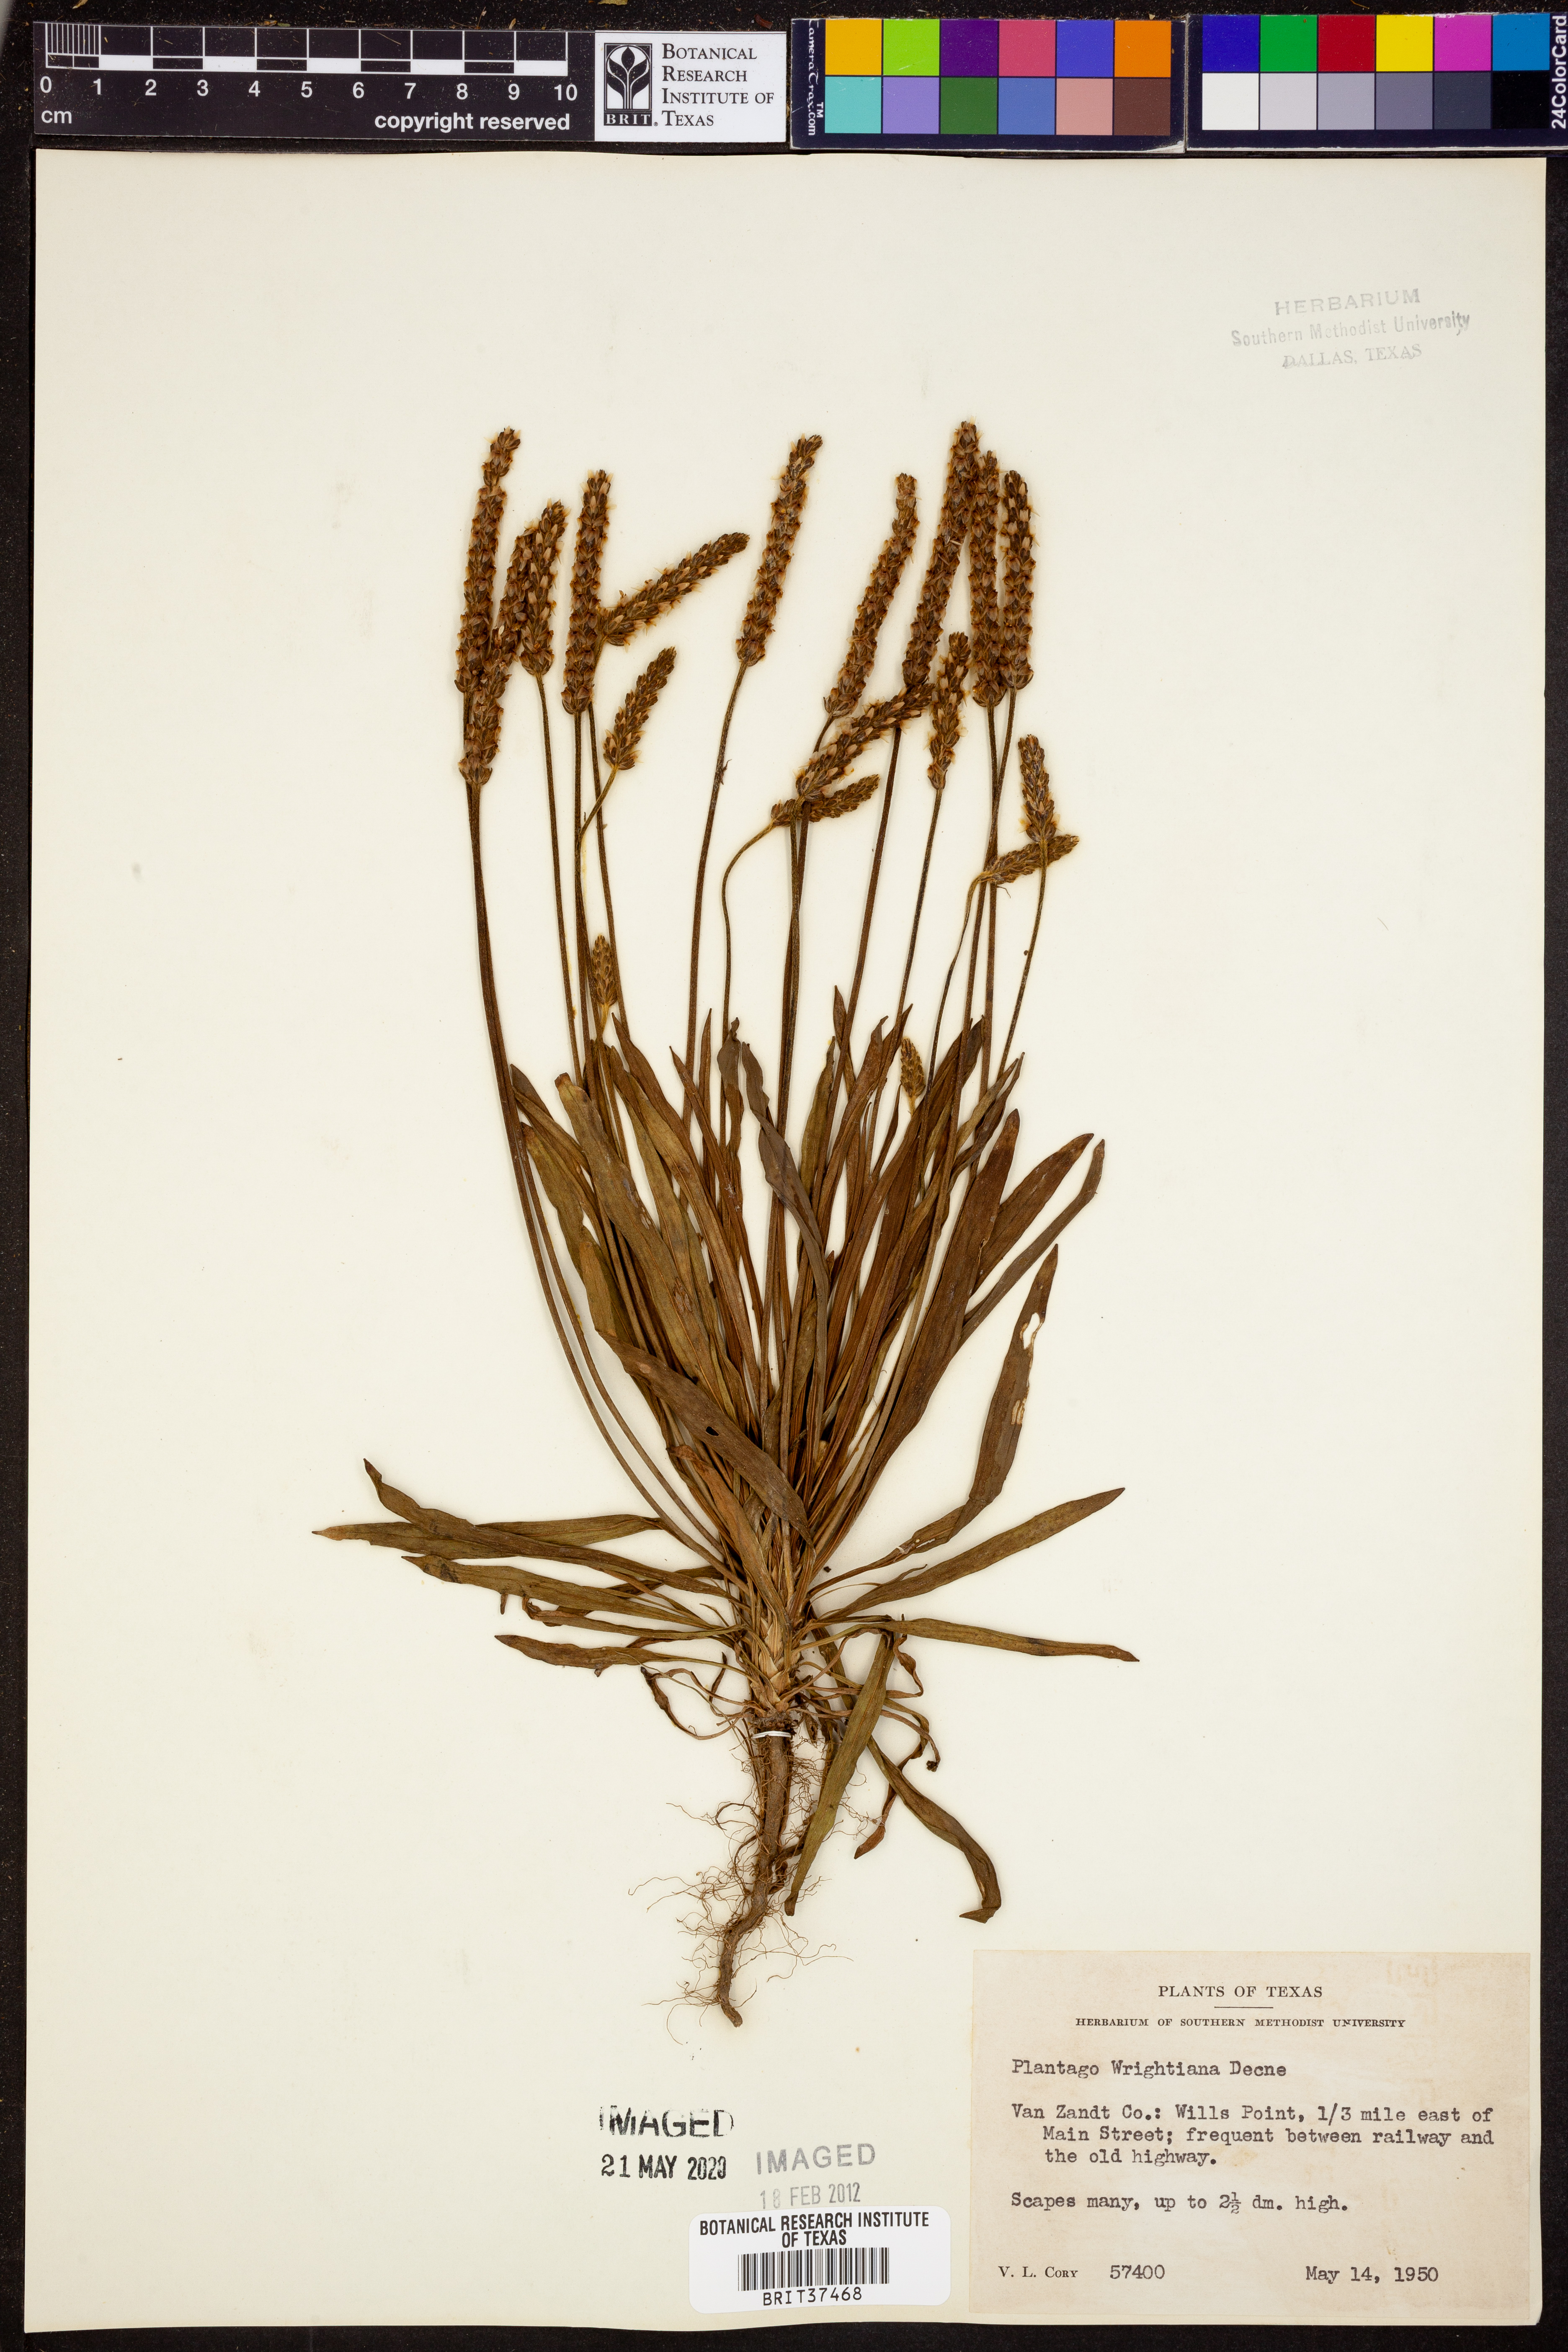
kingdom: Plantae
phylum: Tracheophyta
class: Magnoliopsida
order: Lamiales
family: Plantaginaceae
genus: Plantago
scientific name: Plantago wrightiana
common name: Wright's plantain
